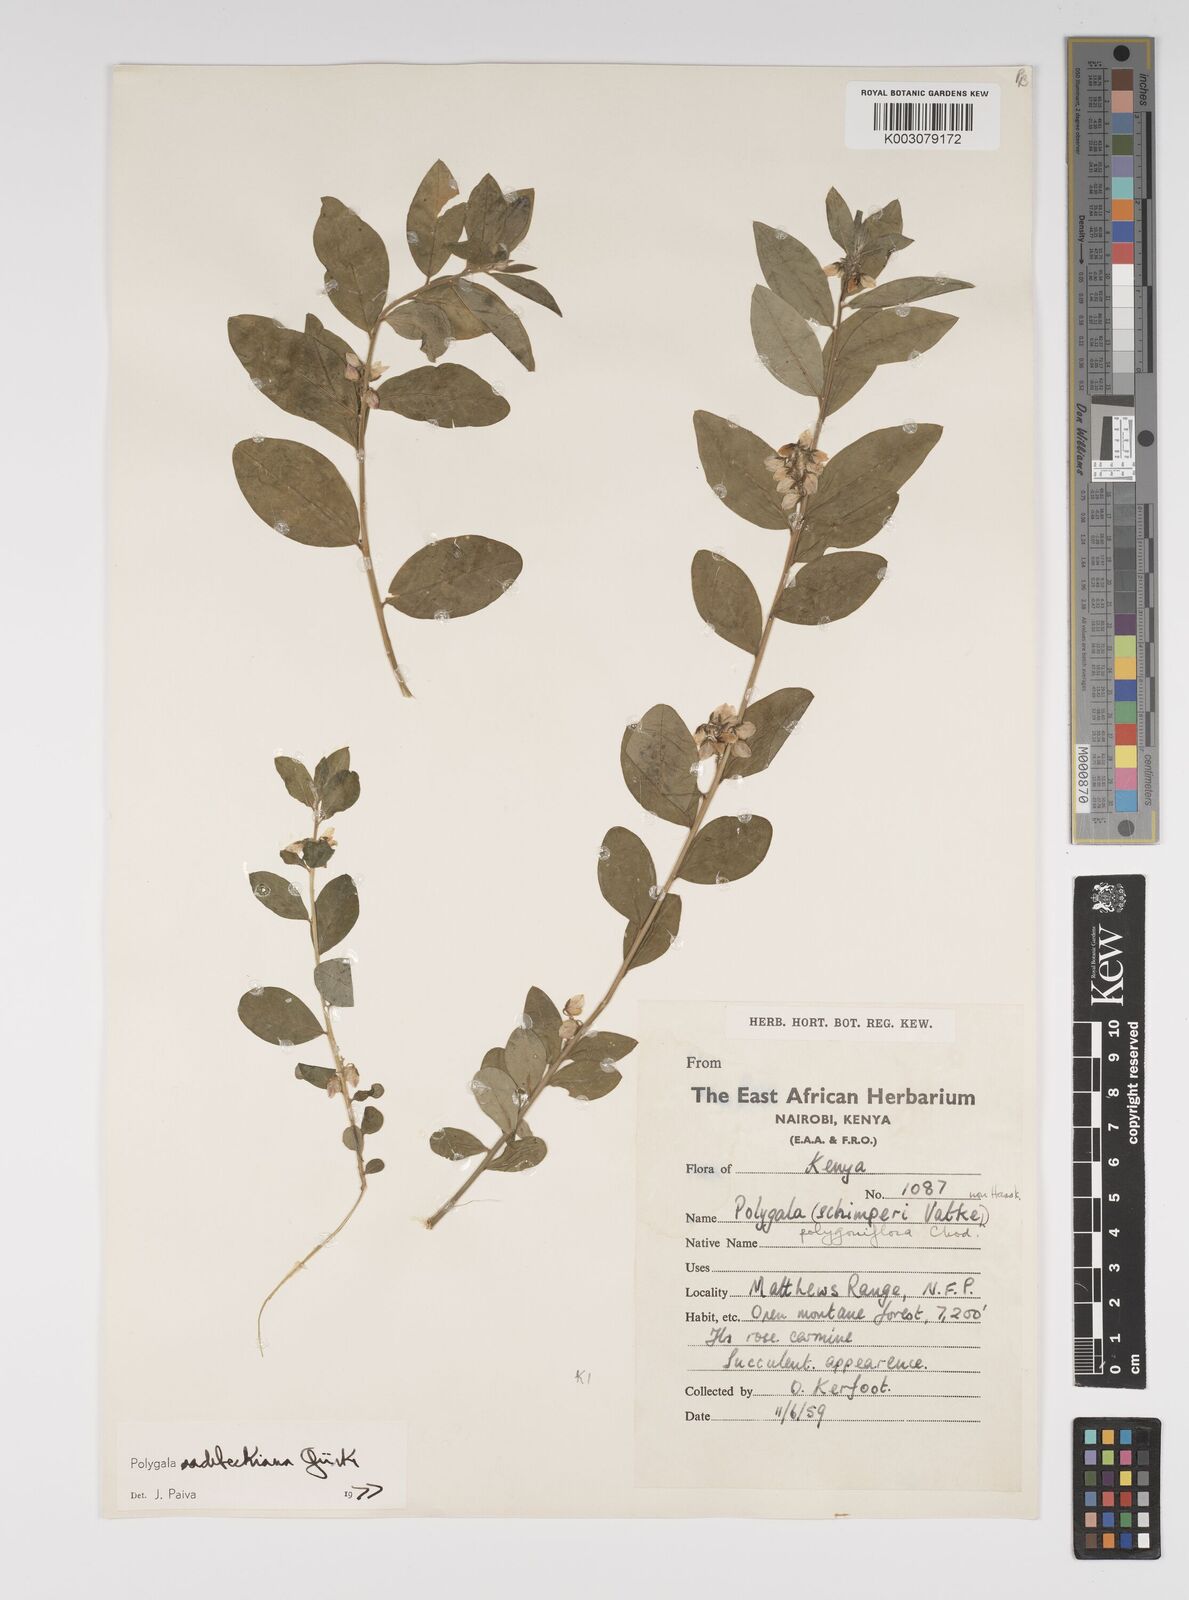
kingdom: Plantae
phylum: Tracheophyta
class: Magnoliopsida
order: Fabales
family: Polygalaceae
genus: Polygala
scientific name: Polygala sadebeckiana
